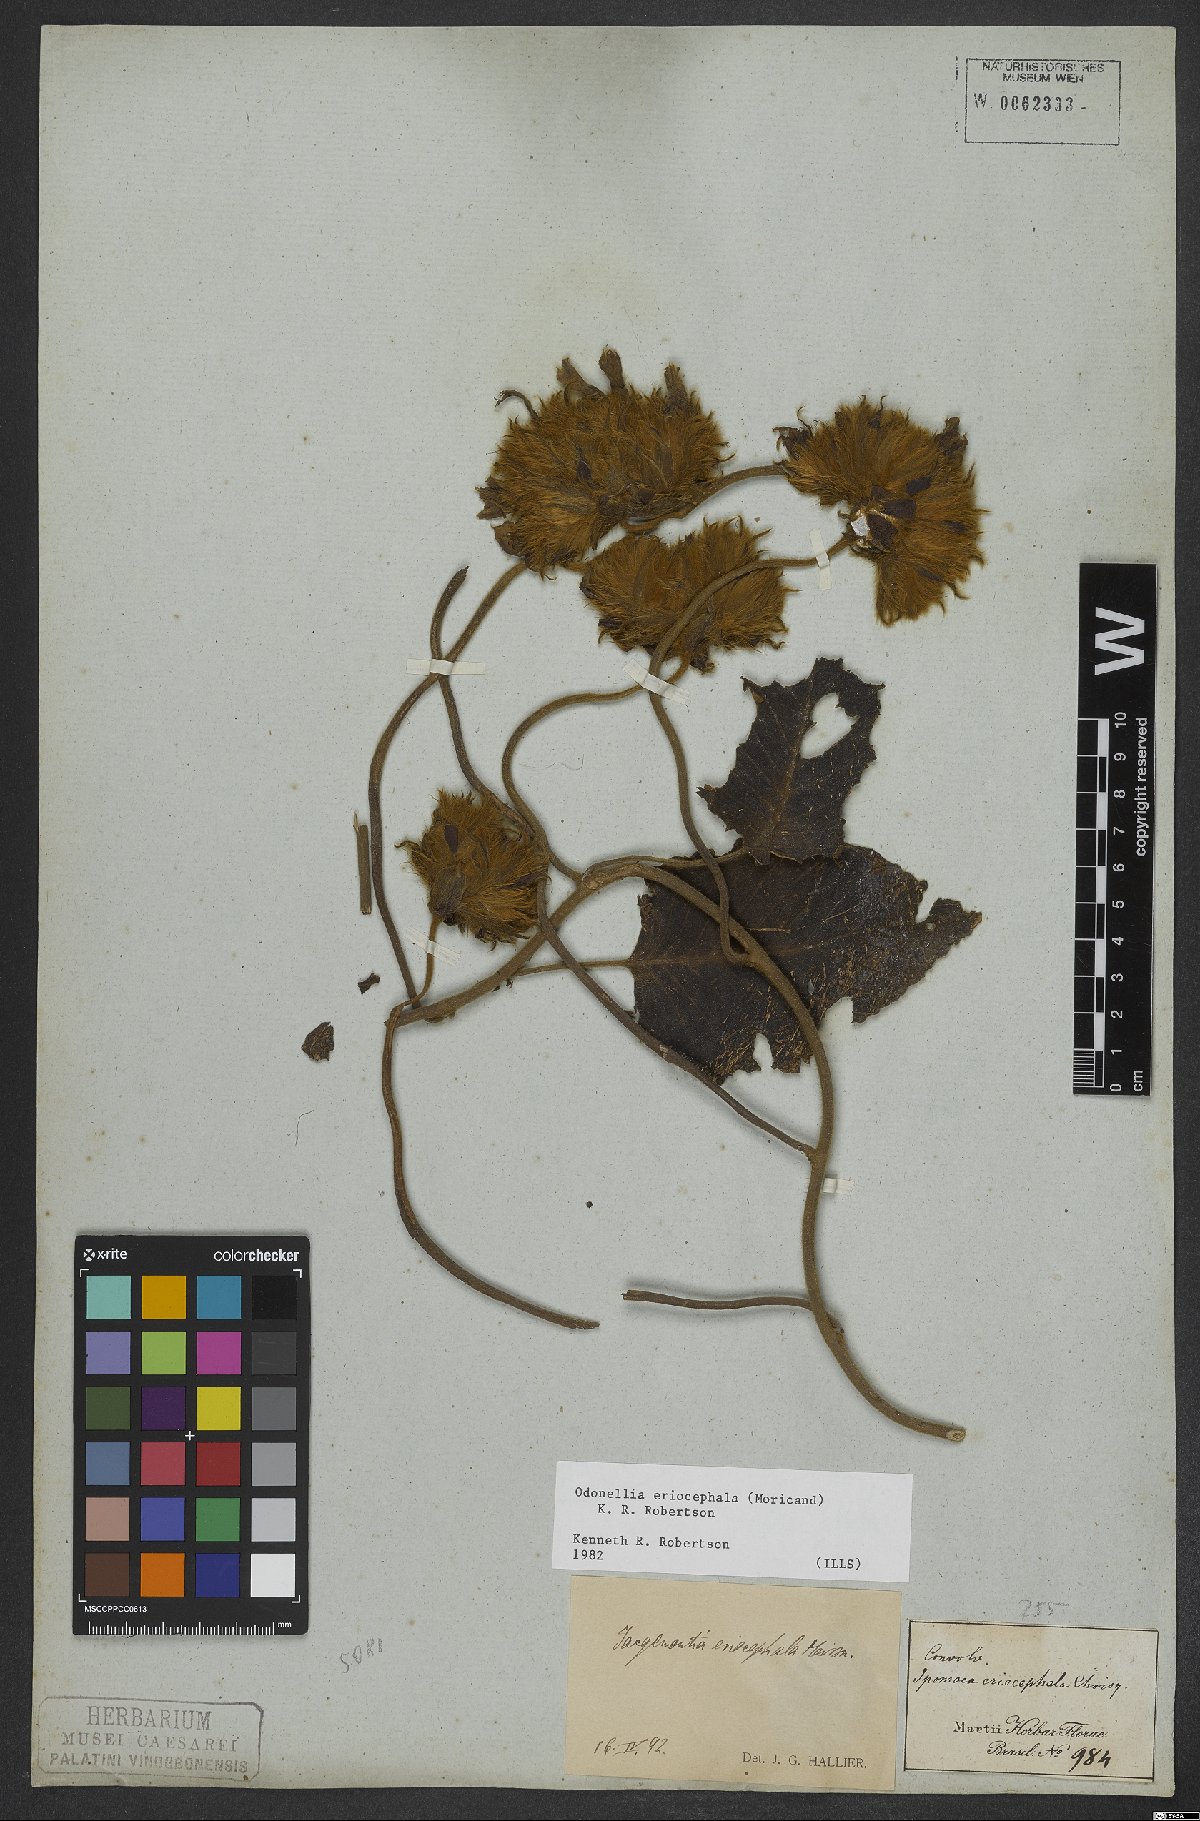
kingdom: Plantae
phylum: Tracheophyta
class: Magnoliopsida
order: Solanales
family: Convolvulaceae
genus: Odonellia
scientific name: Odonellia eriocephala
